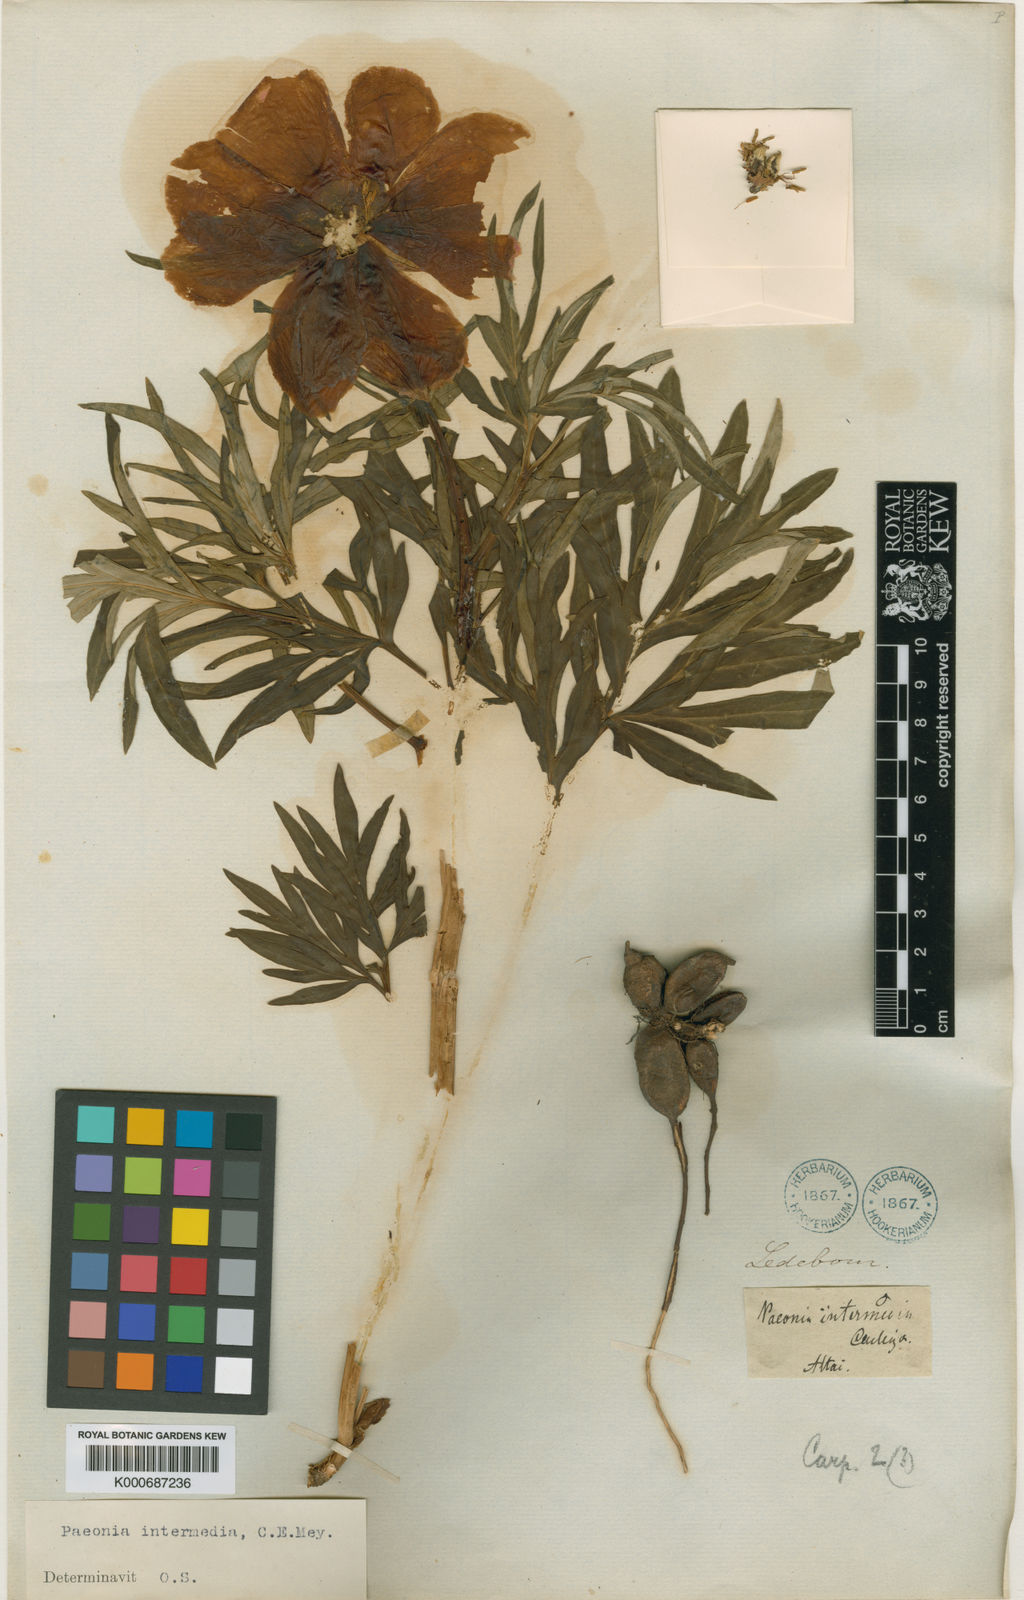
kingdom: Plantae
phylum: Tracheophyta
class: Magnoliopsida
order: Saxifragales
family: Paeoniaceae
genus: Paeonia
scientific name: Paeonia intermedia
